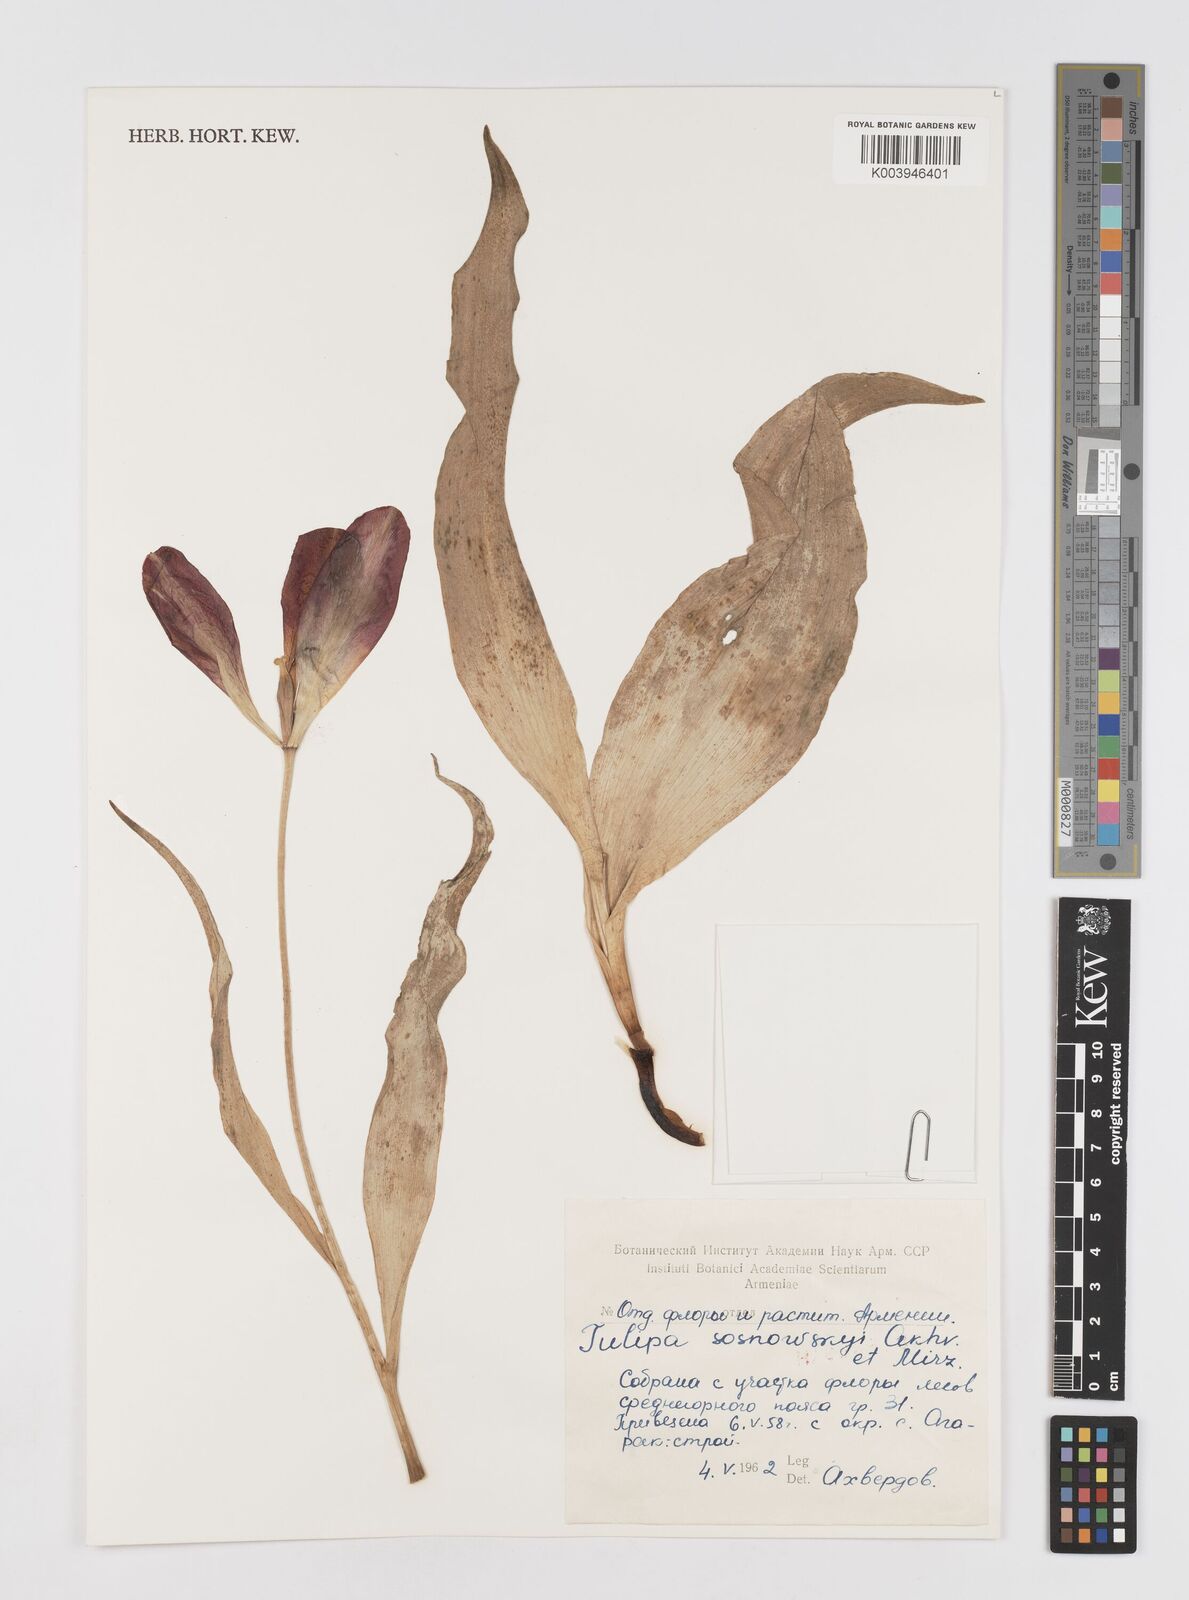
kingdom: Plantae
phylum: Tracheophyta
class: Liliopsida
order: Liliales
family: Liliaceae
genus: Tulipa
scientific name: Tulipa
